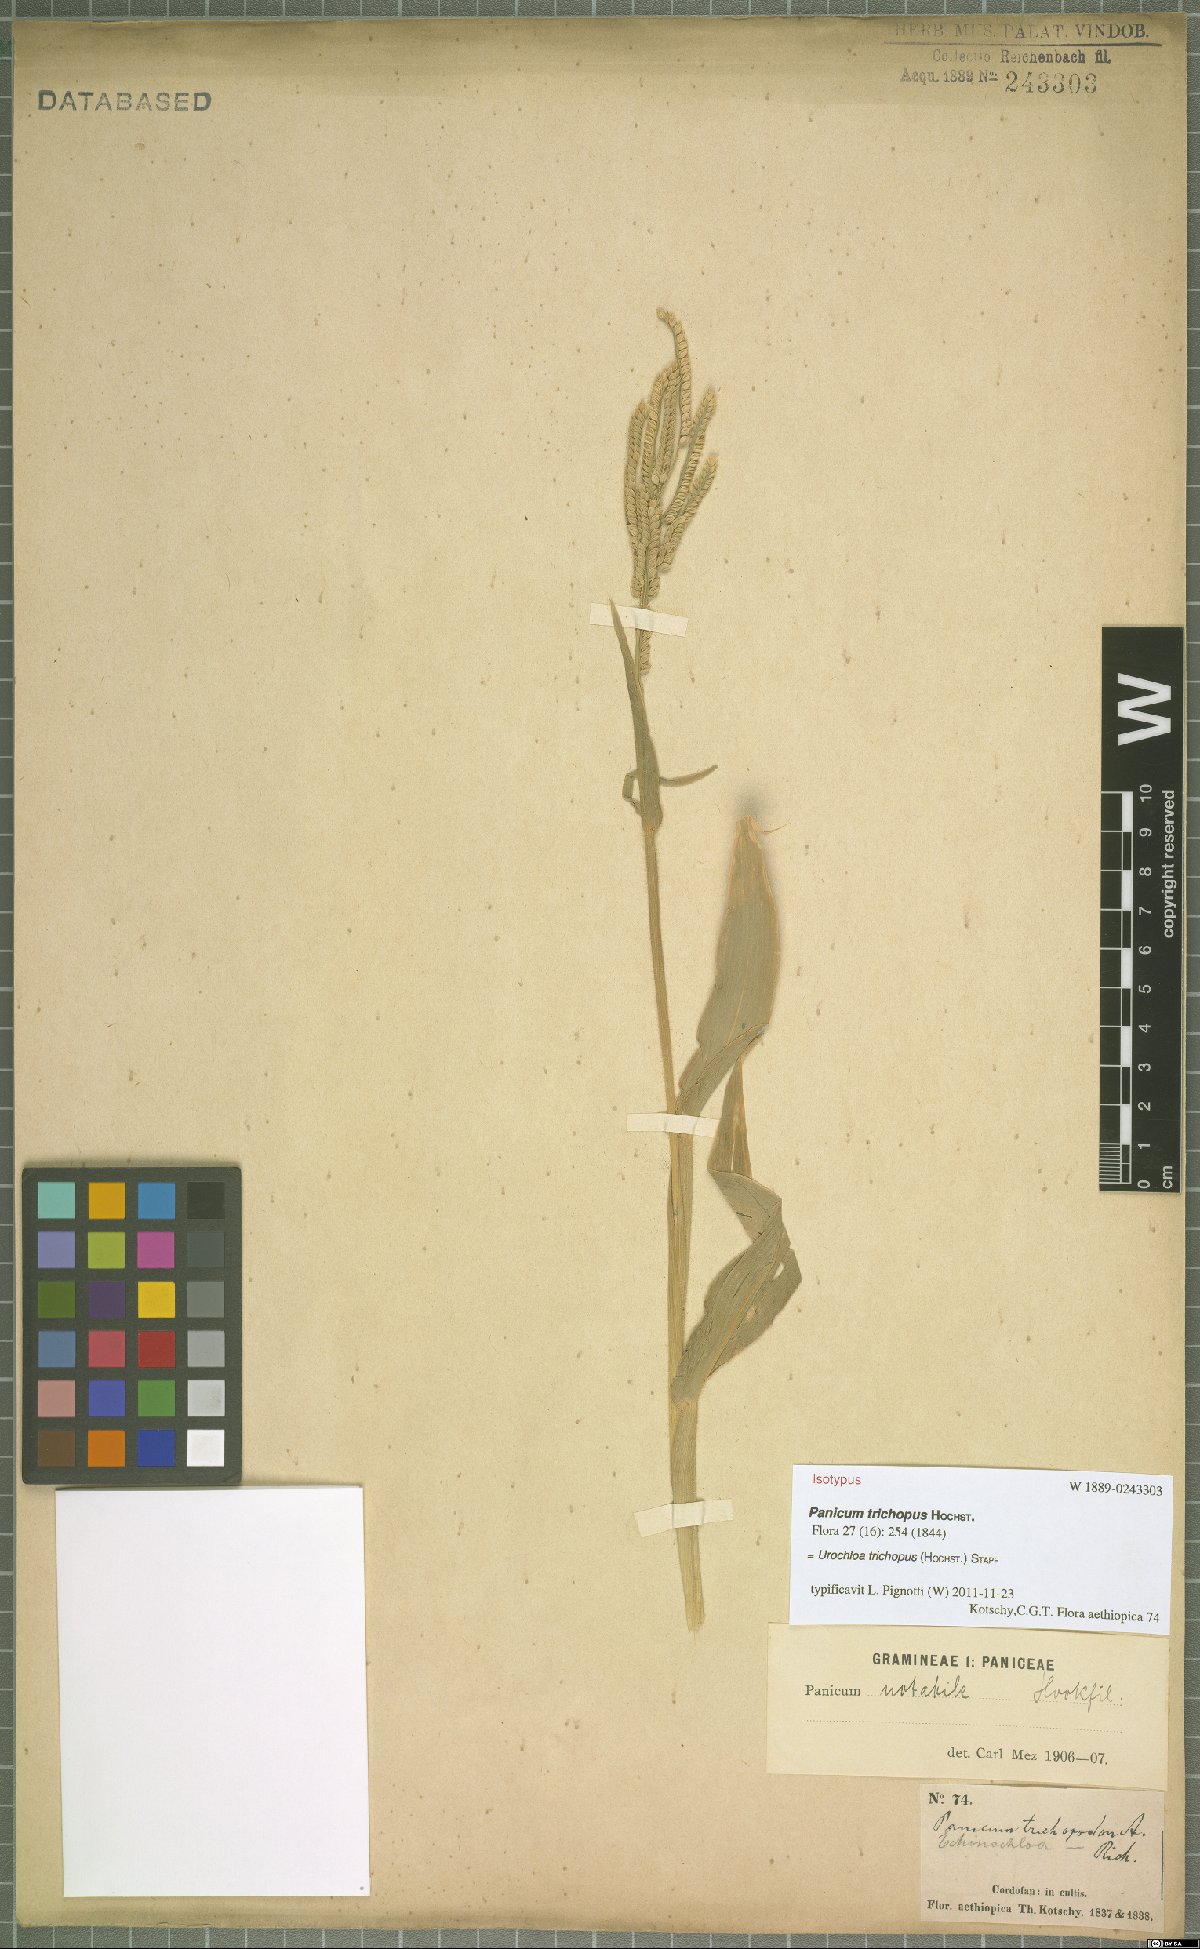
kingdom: Plantae
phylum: Tracheophyta
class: Liliopsida
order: Poales
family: Poaceae
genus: Urochloa
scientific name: Urochloa trichopus
